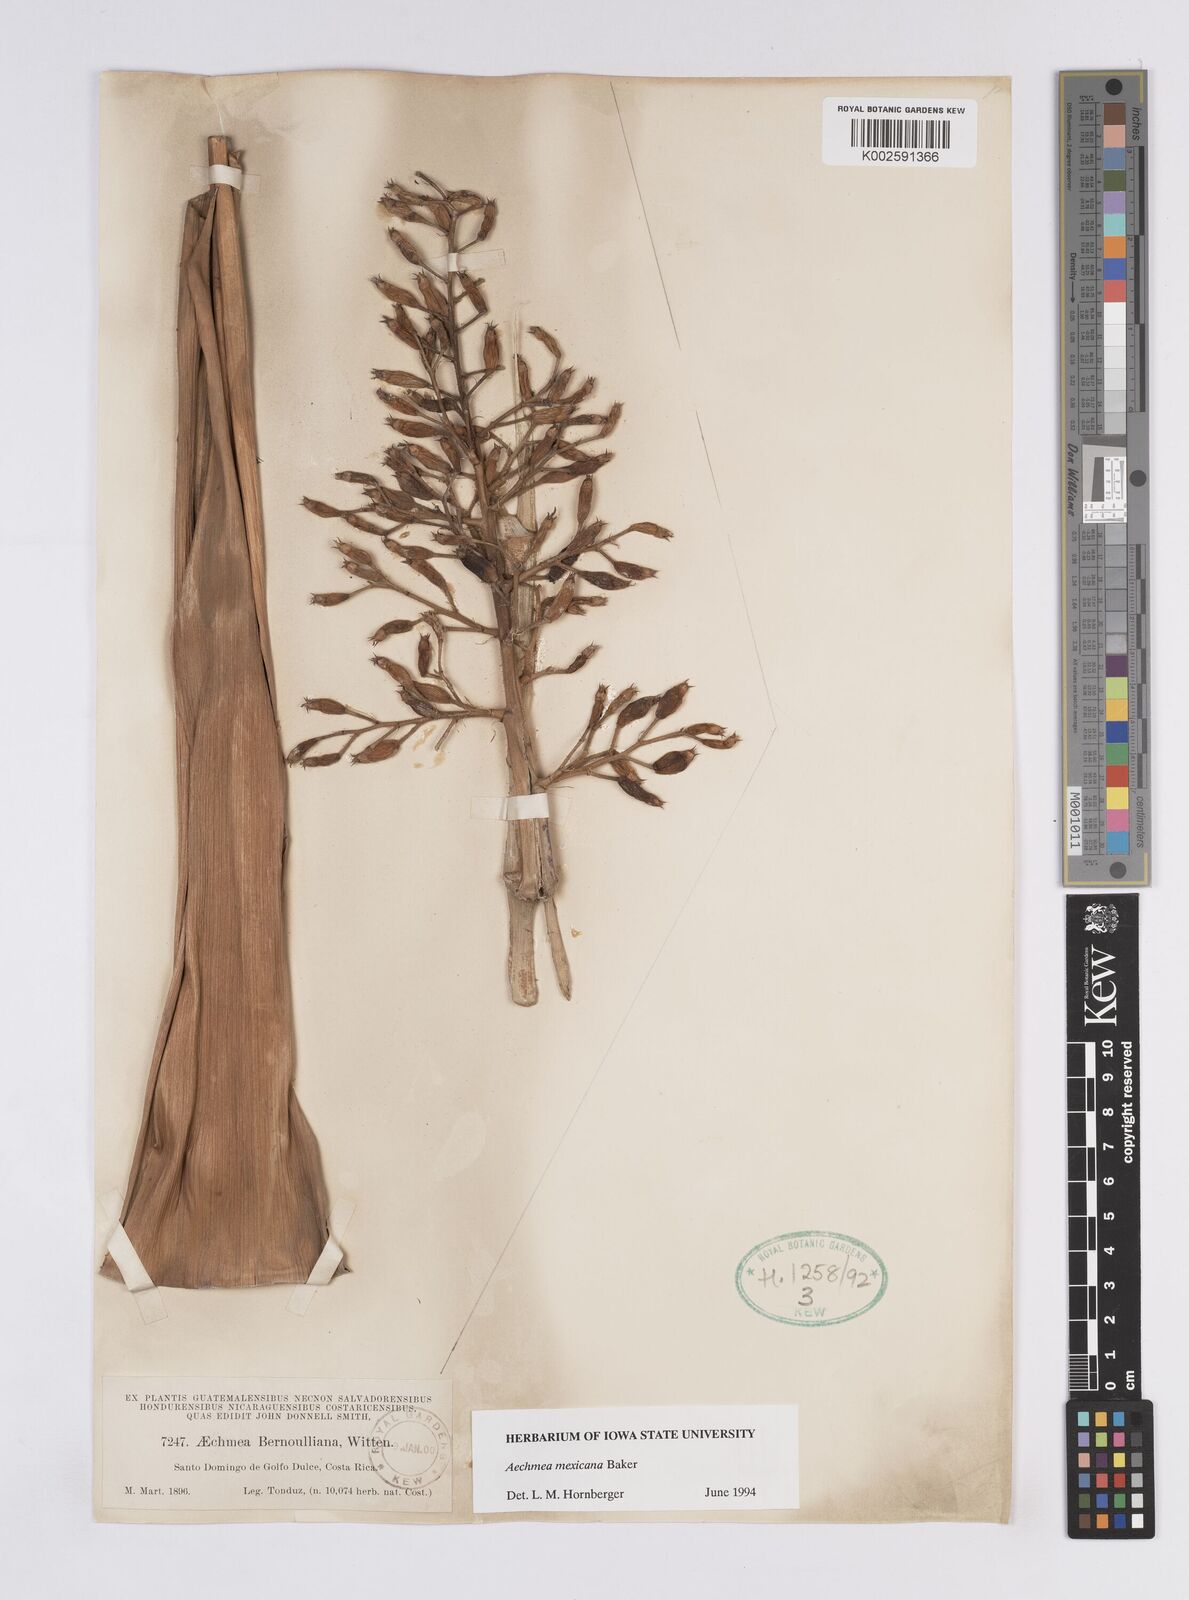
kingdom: Plantae
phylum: Tracheophyta
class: Liliopsida
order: Poales
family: Bromeliaceae
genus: Aechmea
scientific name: Aechmea mexicana
